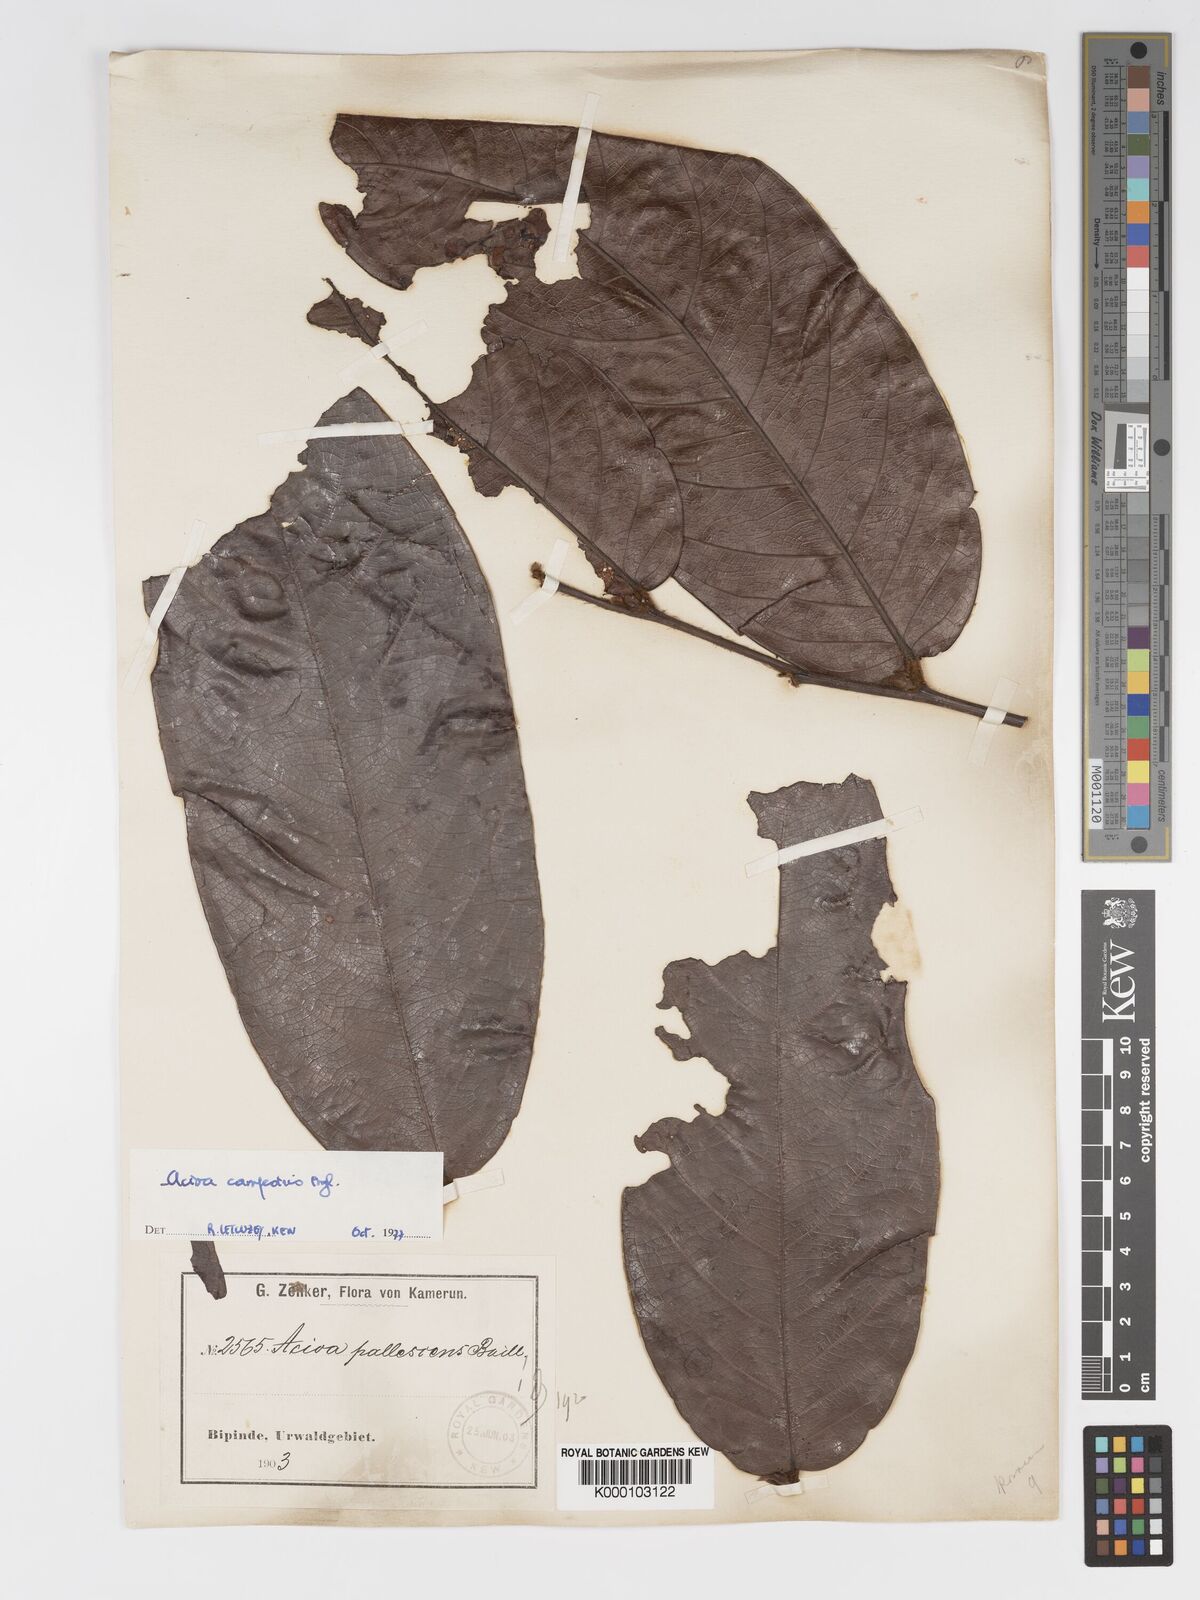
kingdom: Plantae
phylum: Tracheophyta
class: Magnoliopsida
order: Malpighiales
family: Chrysobalanaceae
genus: Dactyladenia
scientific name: Dactyladenia campestris
